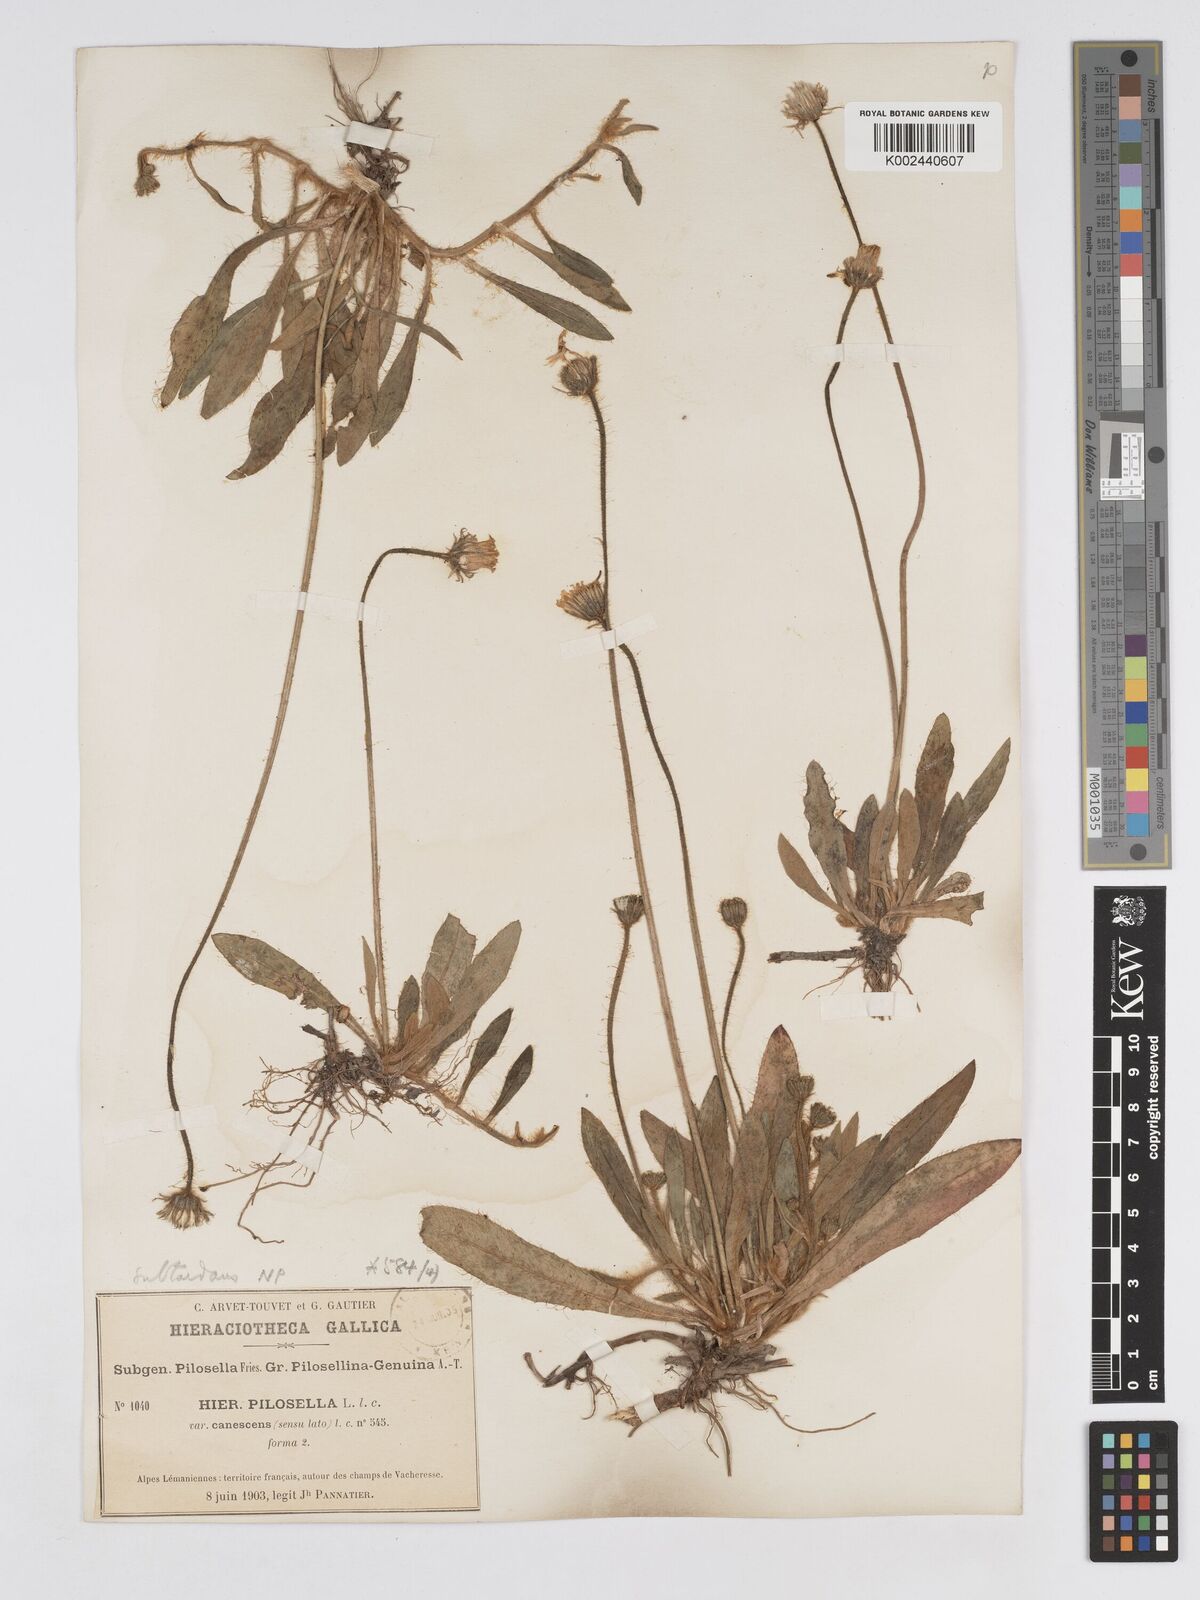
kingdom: Plantae
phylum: Tracheophyta
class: Magnoliopsida
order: Asterales
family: Asteraceae
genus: Pilosella
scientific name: Pilosella subtardans
